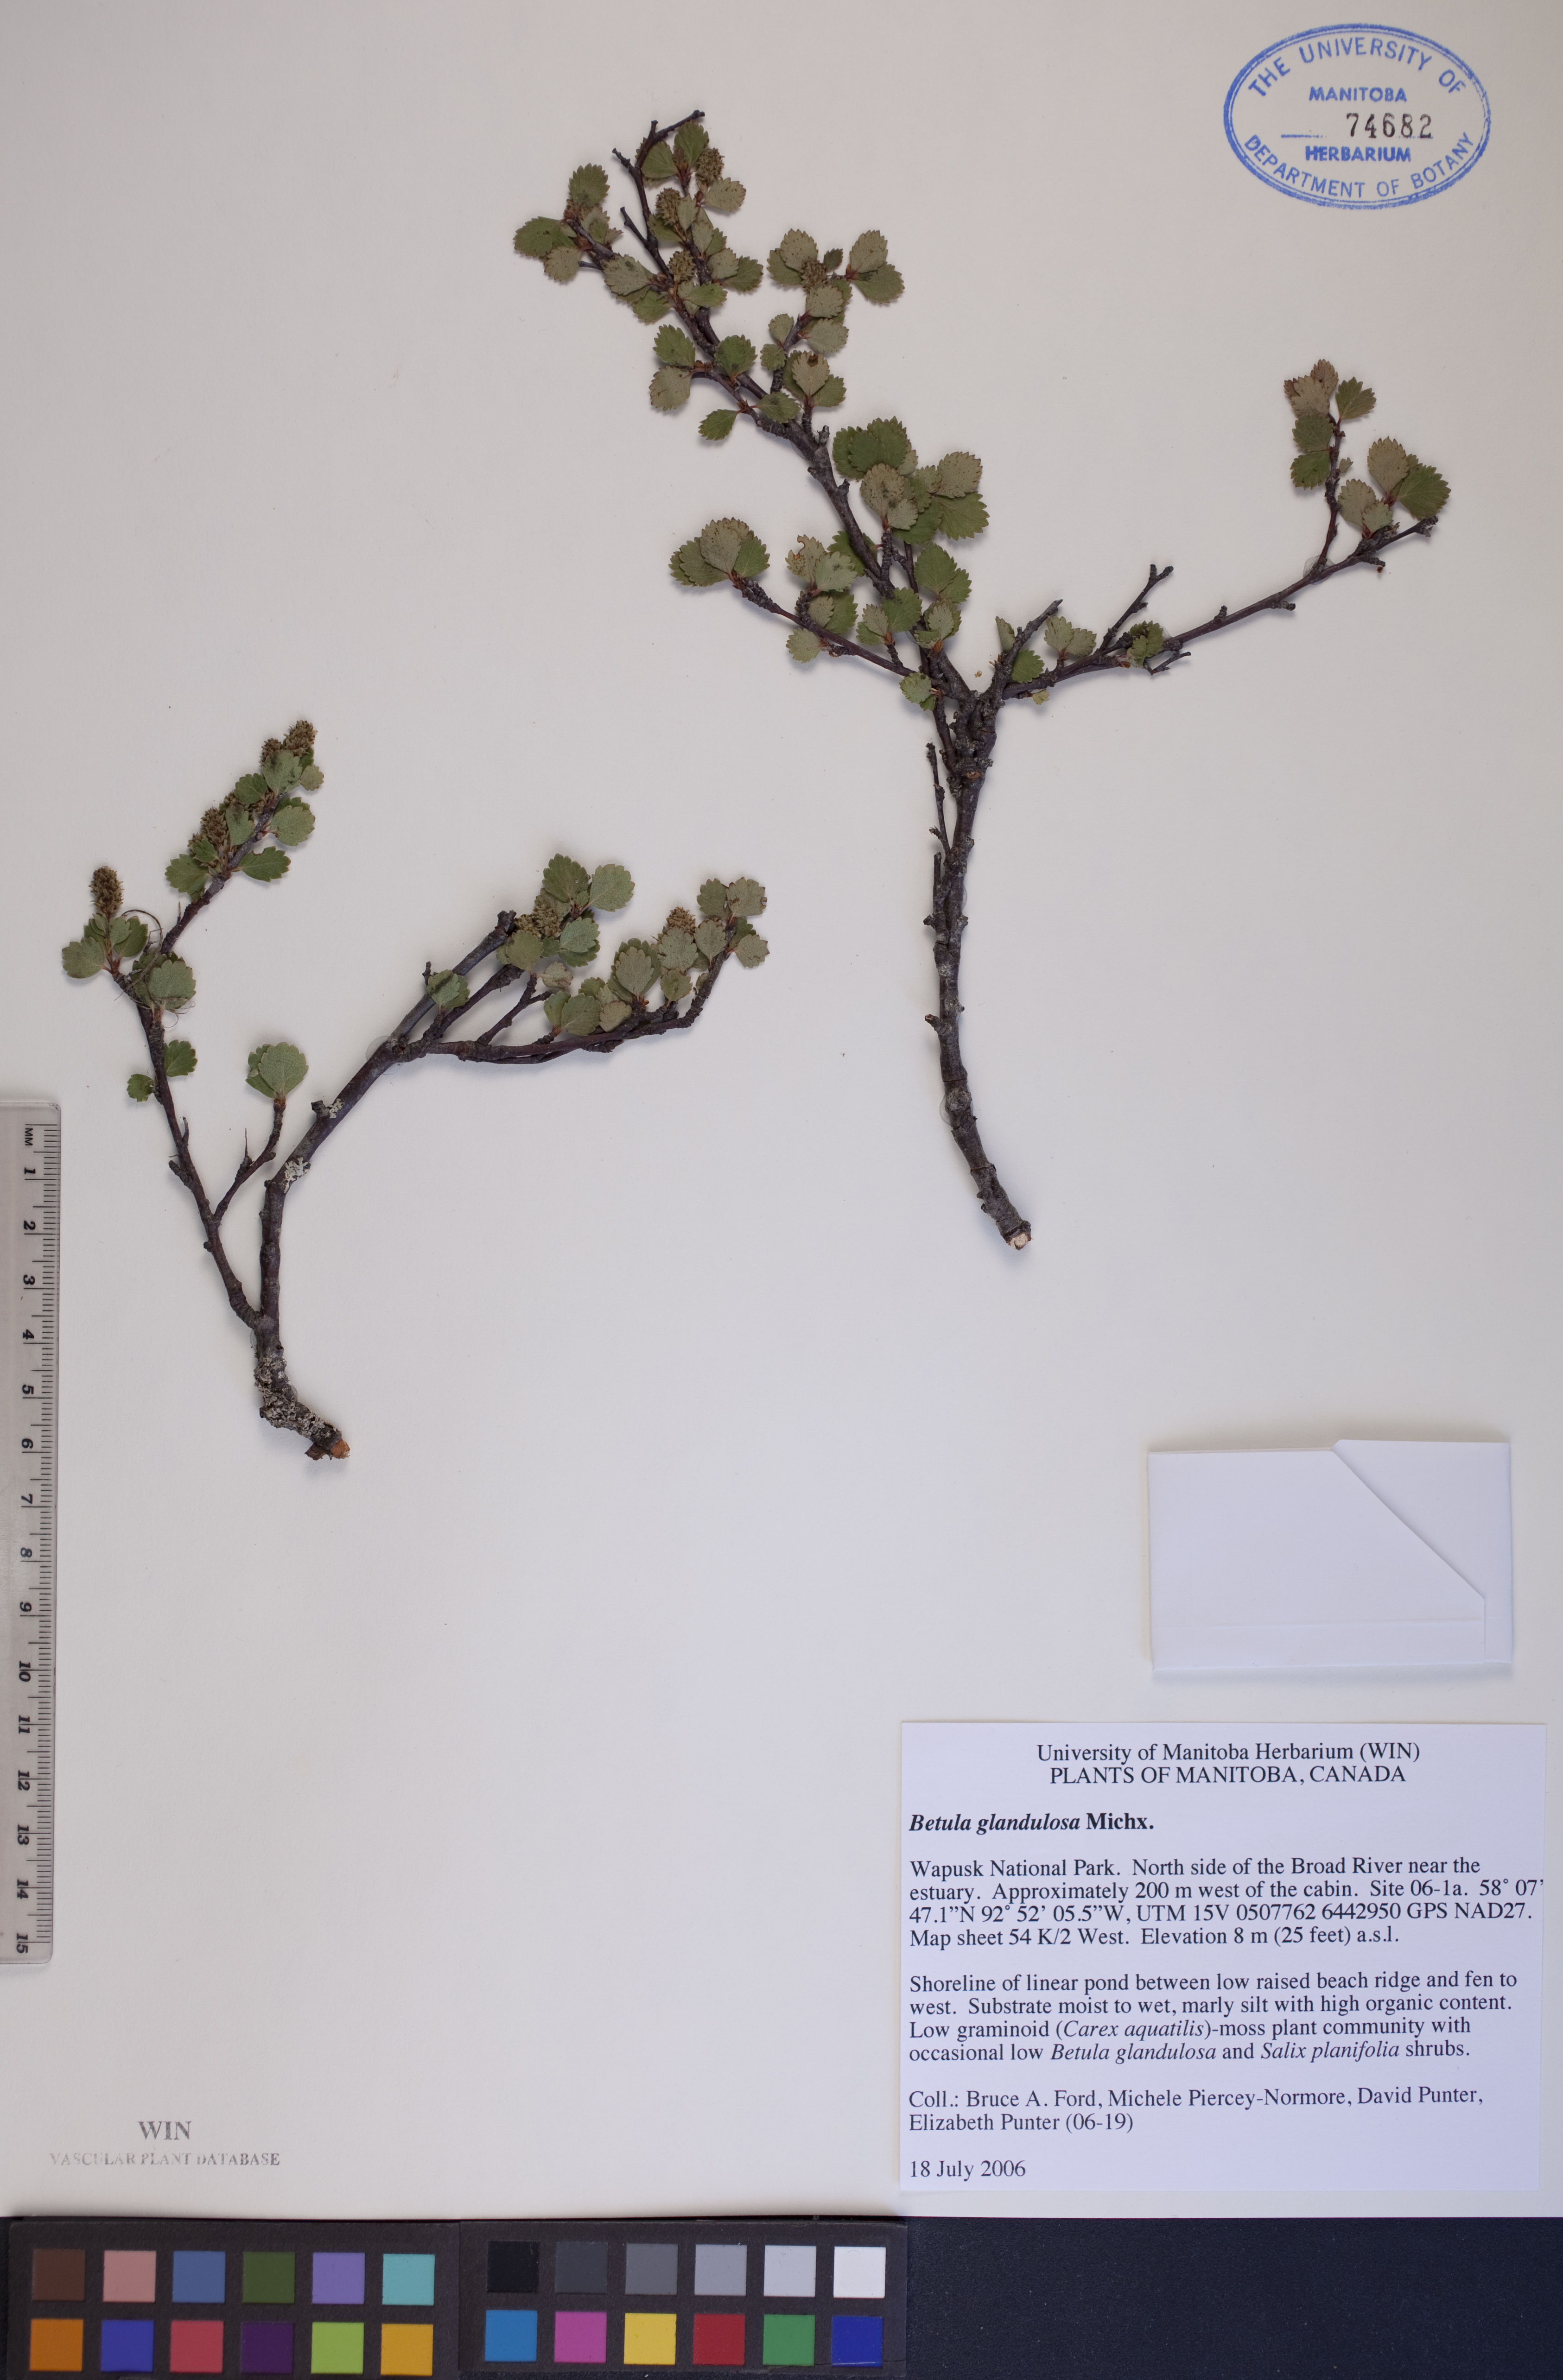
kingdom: Plantae
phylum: Tracheophyta
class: Magnoliopsida
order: Fagales
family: Betulaceae
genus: Betula
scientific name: Betula glandulosa
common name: Dwarf birch
